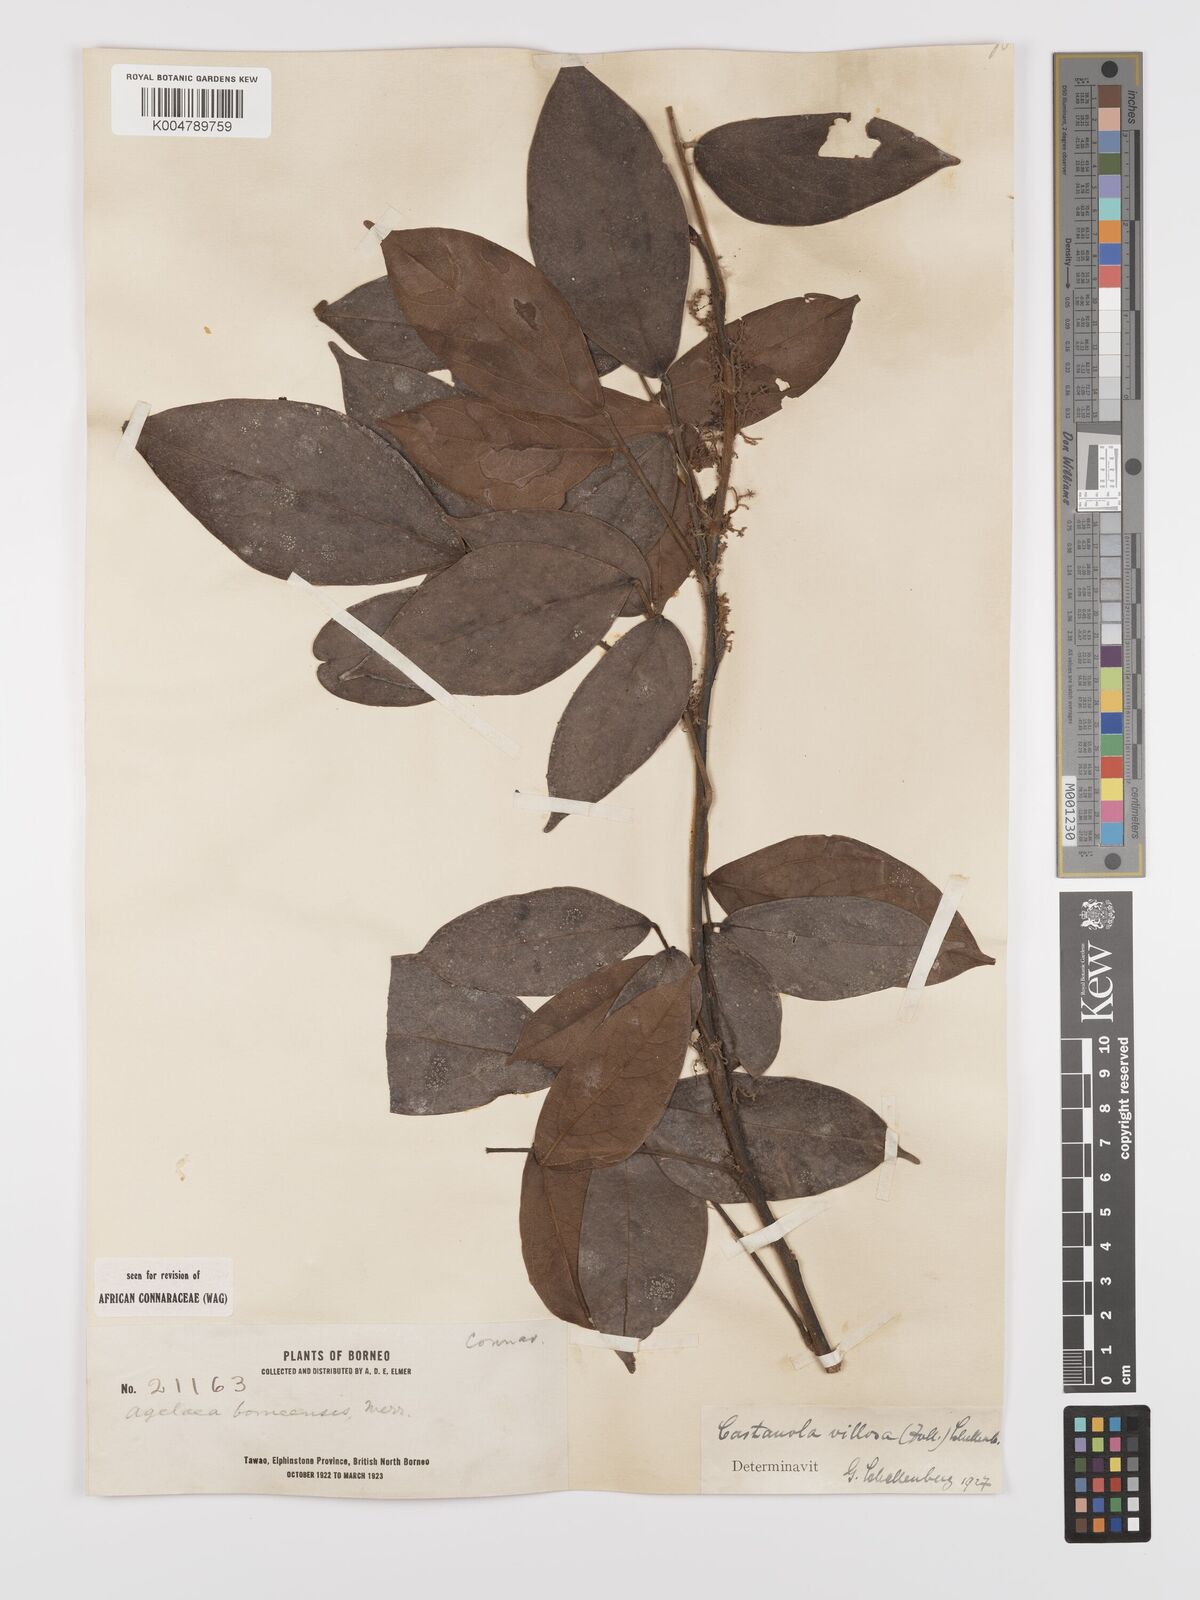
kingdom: Plantae
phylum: Tracheophyta
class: Magnoliopsida
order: Oxalidales
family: Connaraceae
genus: Agelaea
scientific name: Agelaea borneensis
